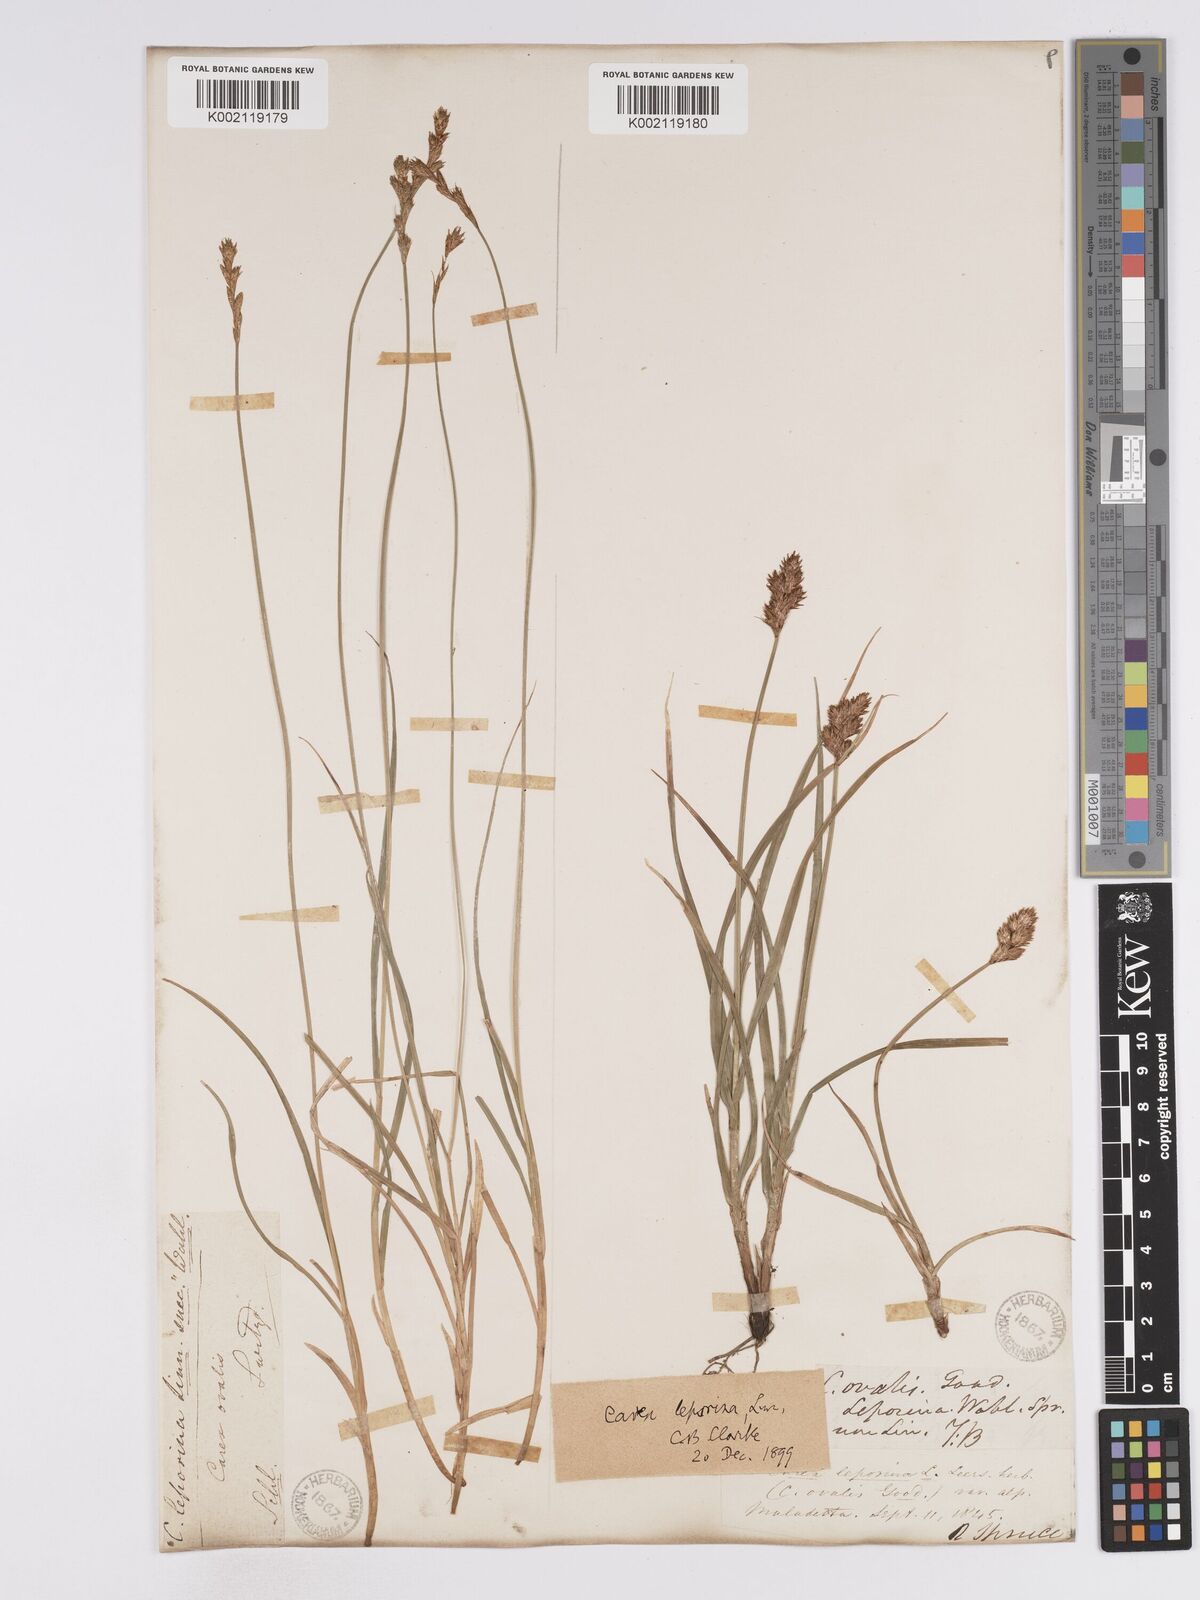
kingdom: Plantae
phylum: Tracheophyta
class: Liliopsida
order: Poales
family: Cyperaceae
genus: Carex
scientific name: Carex leporina
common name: Oval sedge
